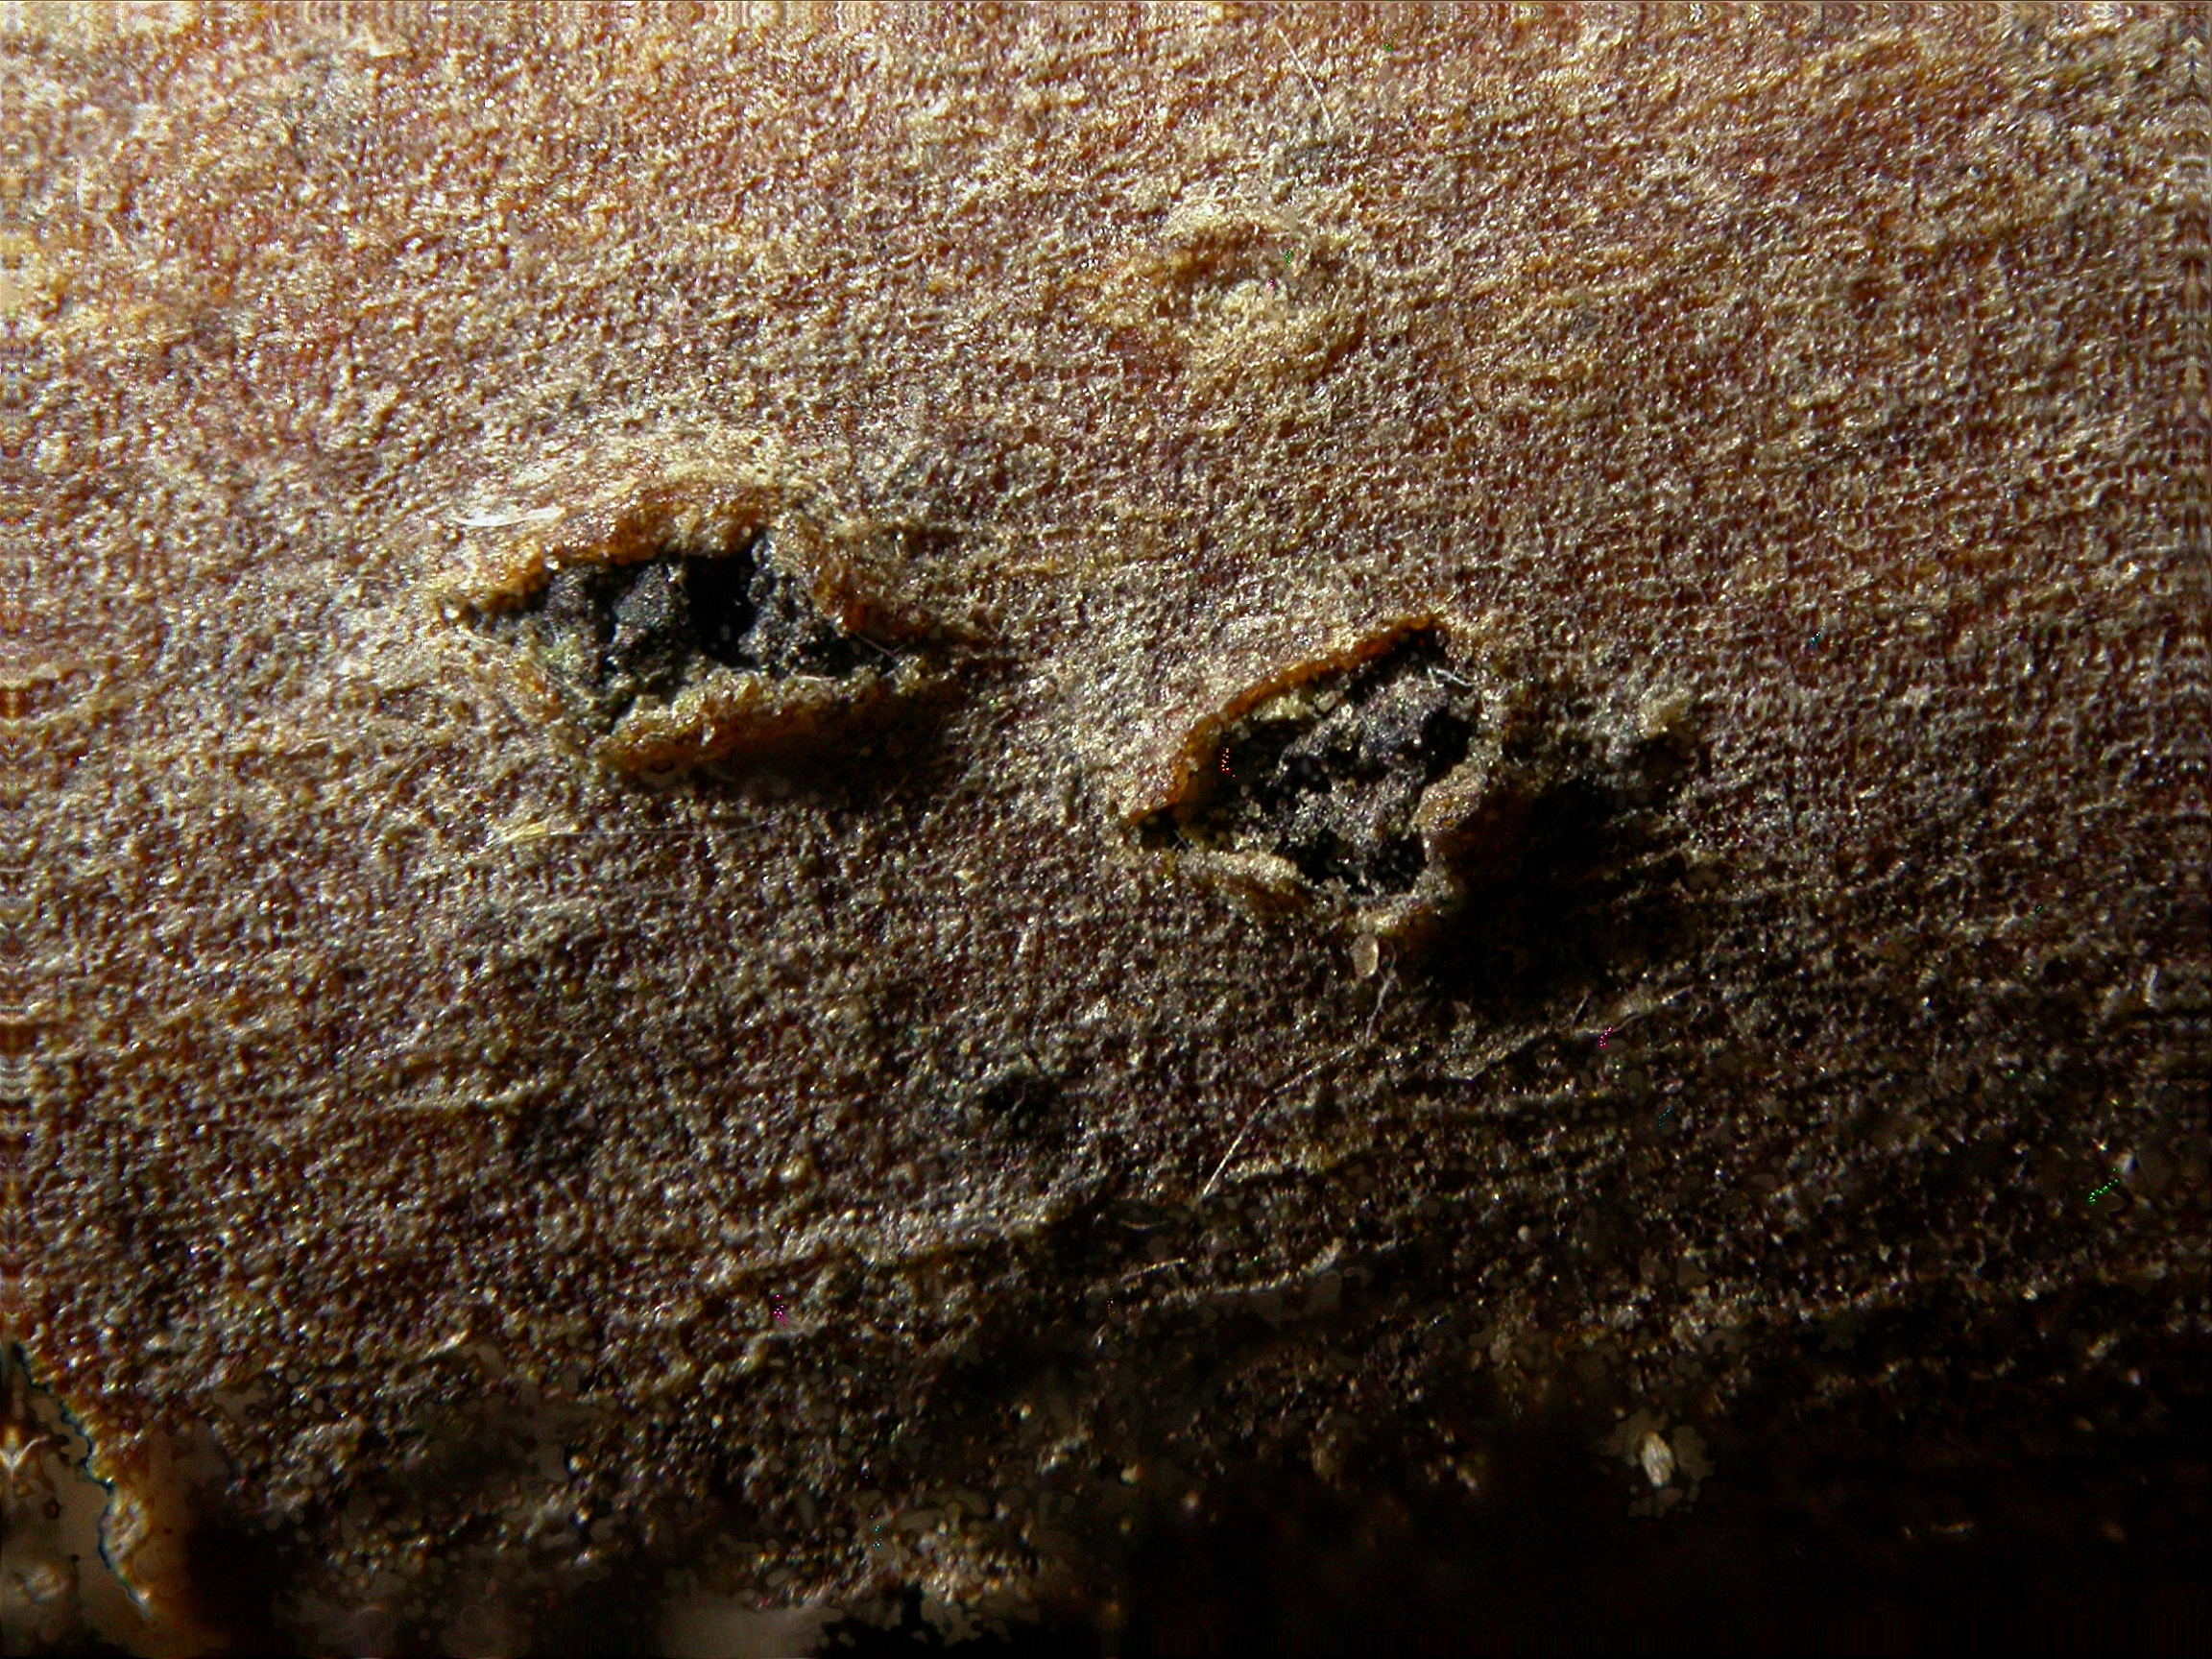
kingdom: Fungi
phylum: Ascomycota
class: Dothideomycetes
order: Dothideales
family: Saccotheciaceae
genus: Metasphaeria
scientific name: Metasphaeria vulgaris
